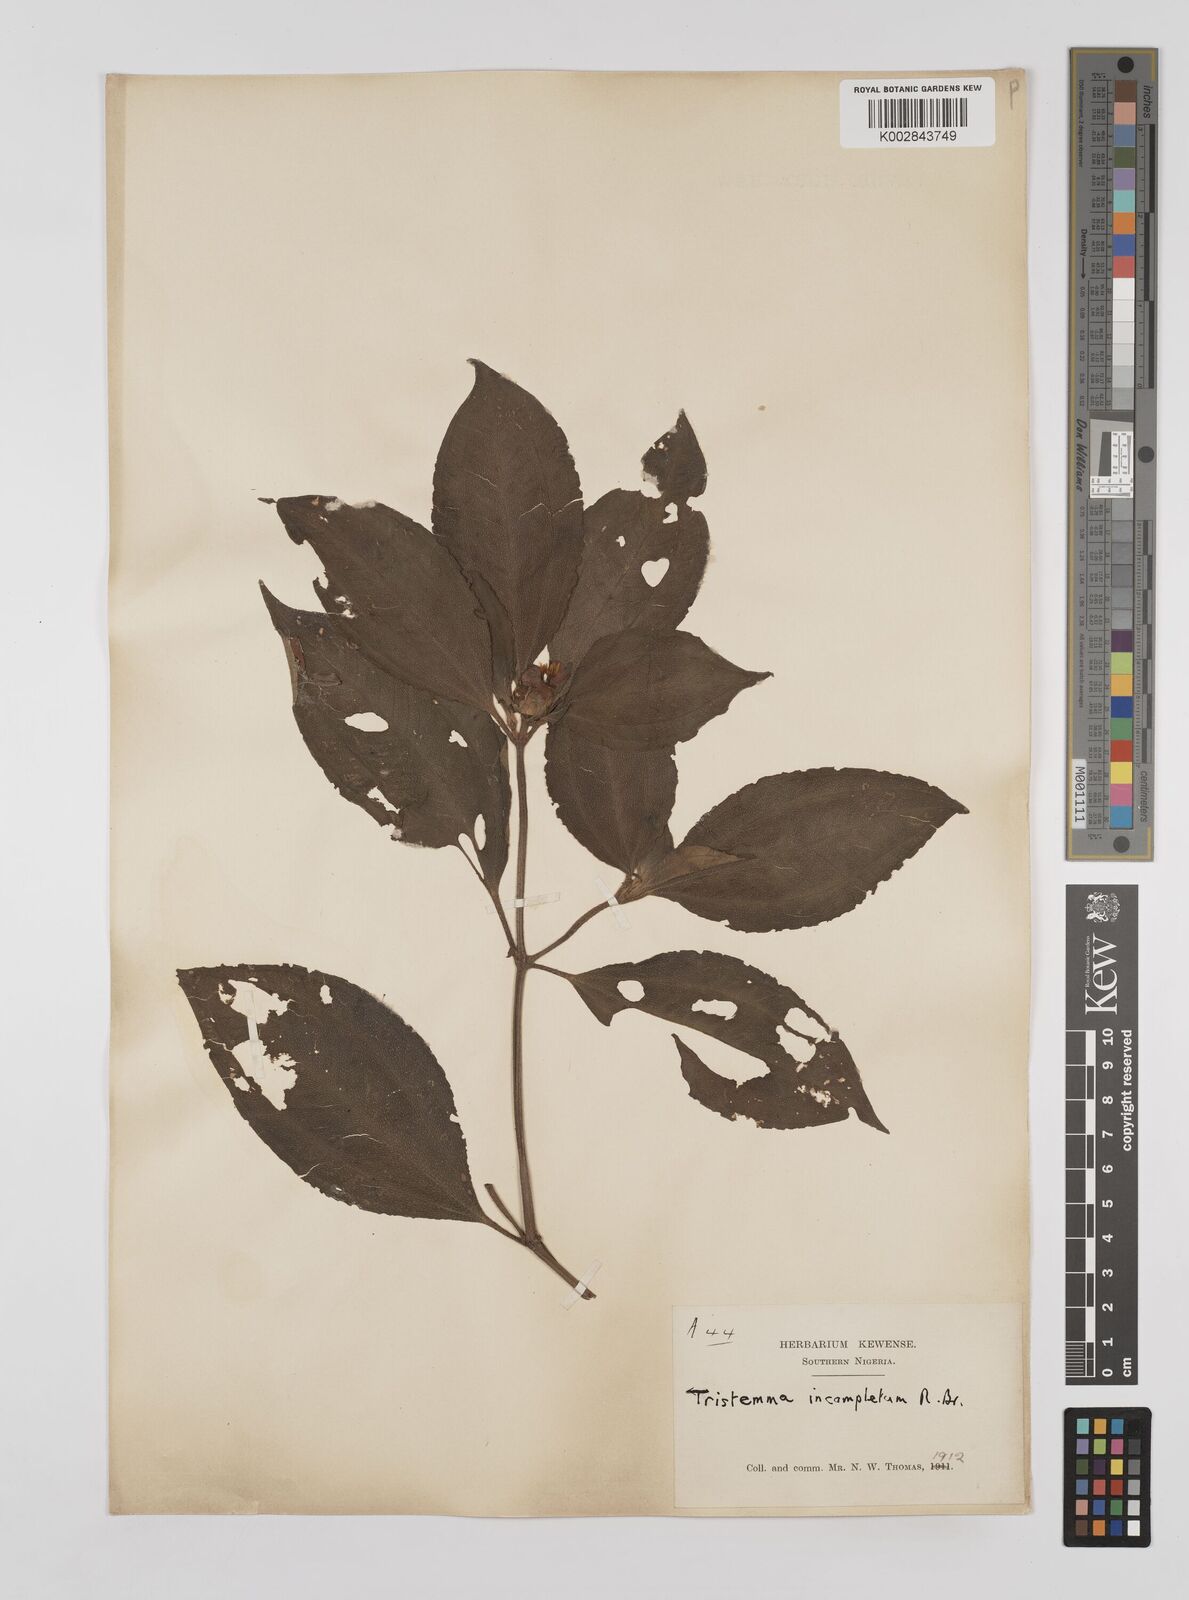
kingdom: Plantae
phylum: Tracheophyta
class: Magnoliopsida
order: Myrtales
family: Melastomataceae
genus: Tristemma
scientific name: Tristemma mauritianum
